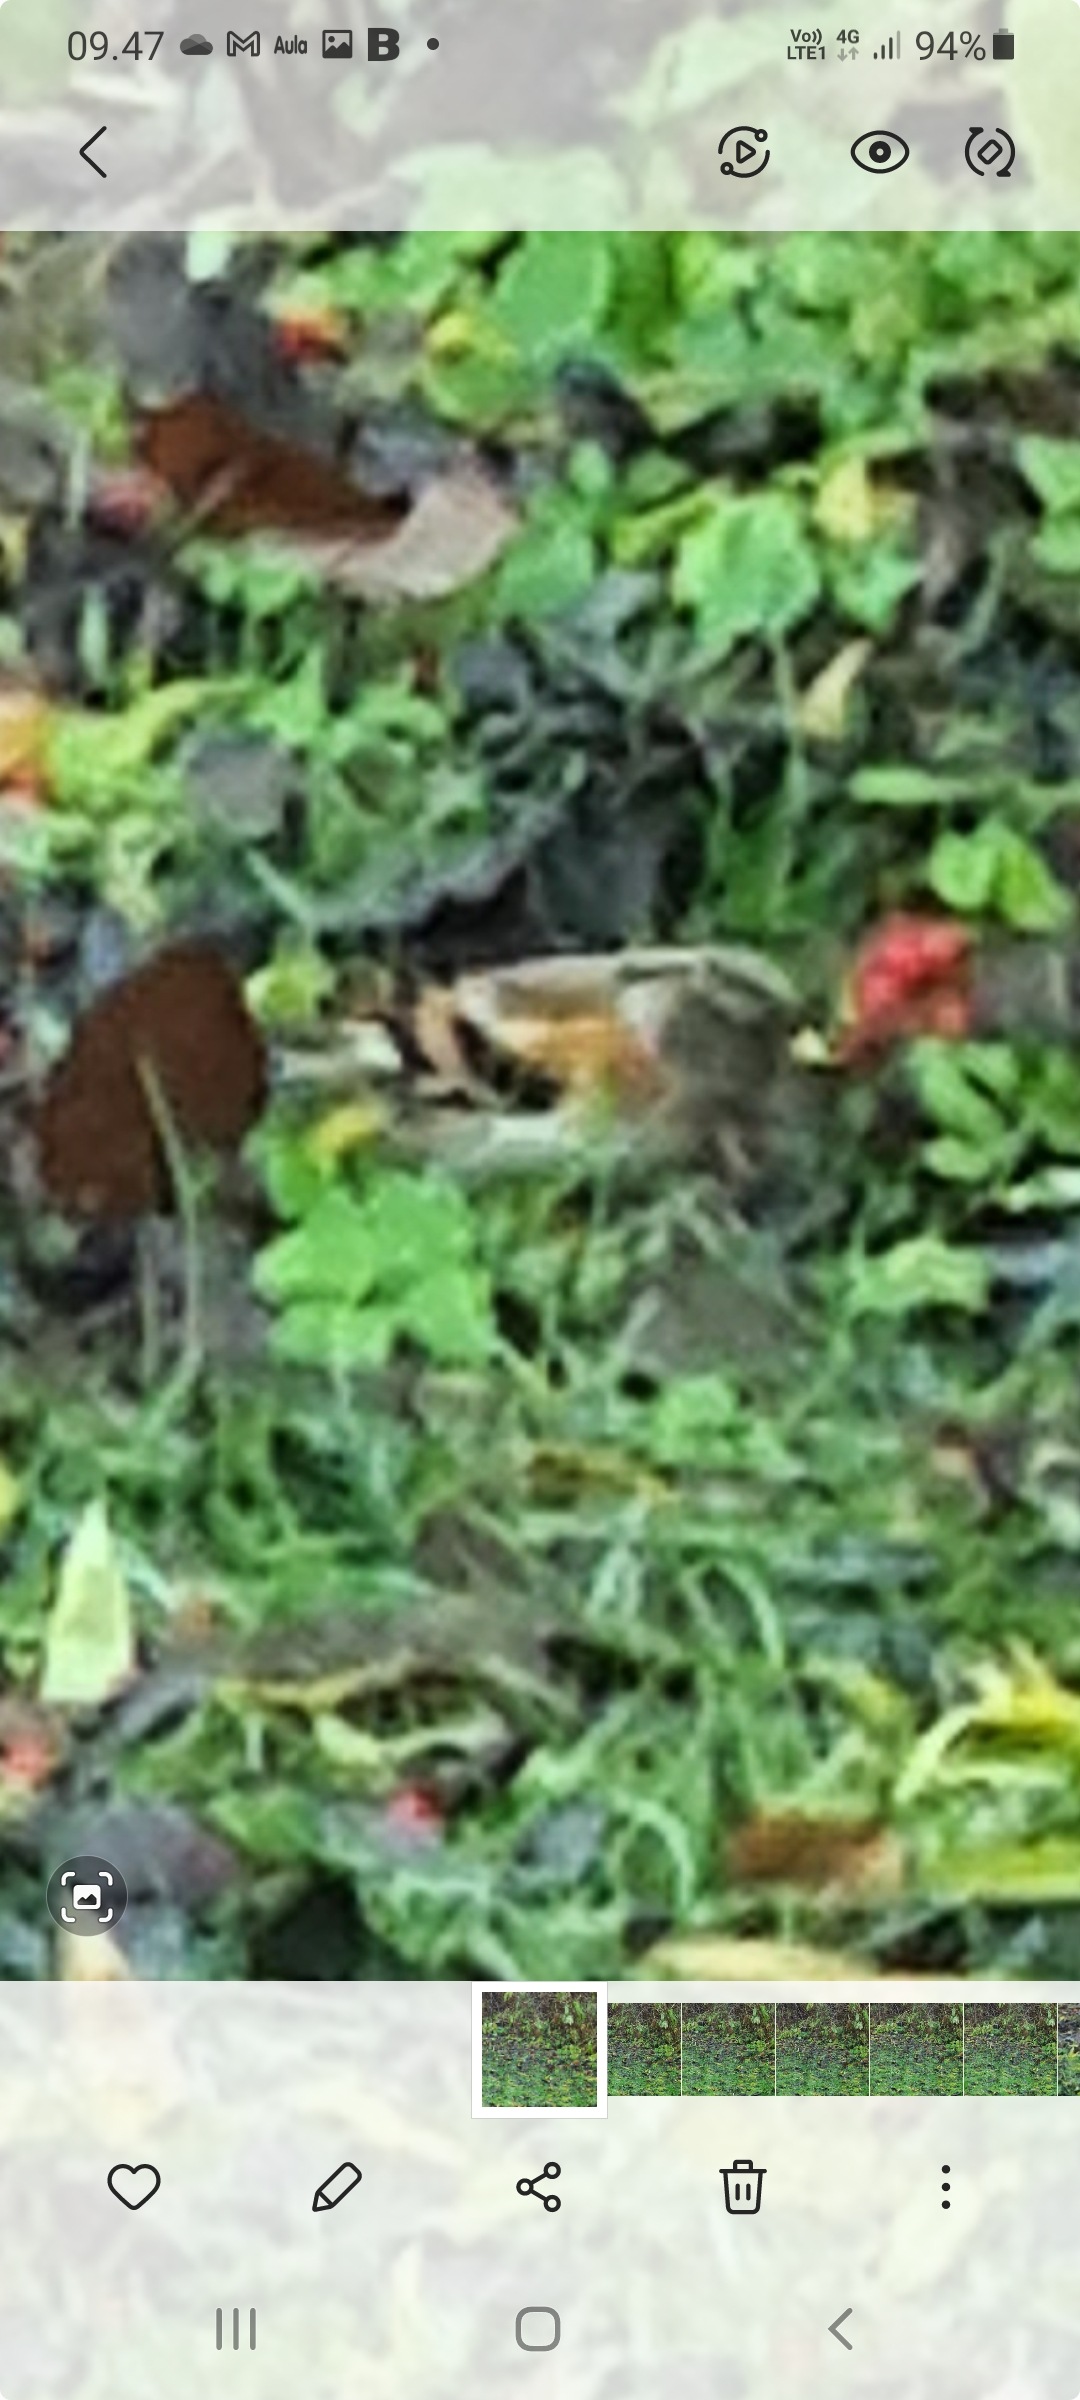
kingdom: Animalia
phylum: Chordata
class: Aves
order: Passeriformes
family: Fringillidae
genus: Fringilla
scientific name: Fringilla montifringilla
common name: Kvækerfinke
